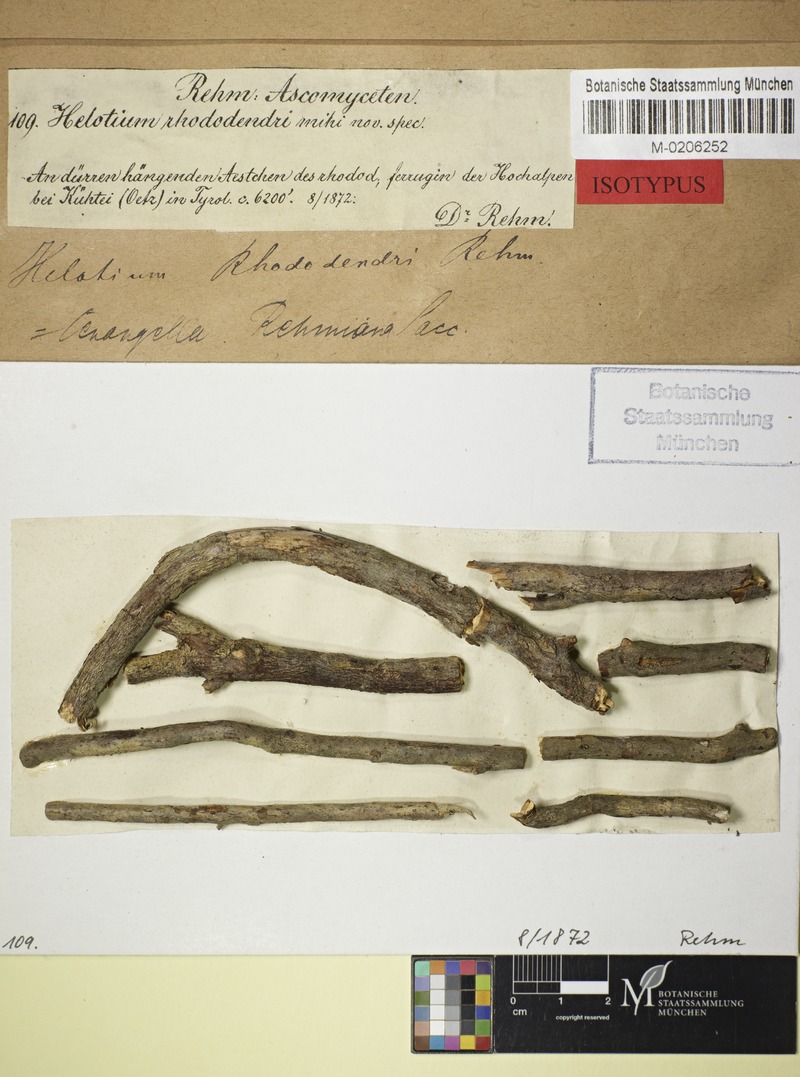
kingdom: Plantae
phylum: Tracheophyta
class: Magnoliopsida
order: Ericales
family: Ericaceae
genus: Rhododendron
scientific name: Rhododendron ferrugineum
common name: Alpenrose
